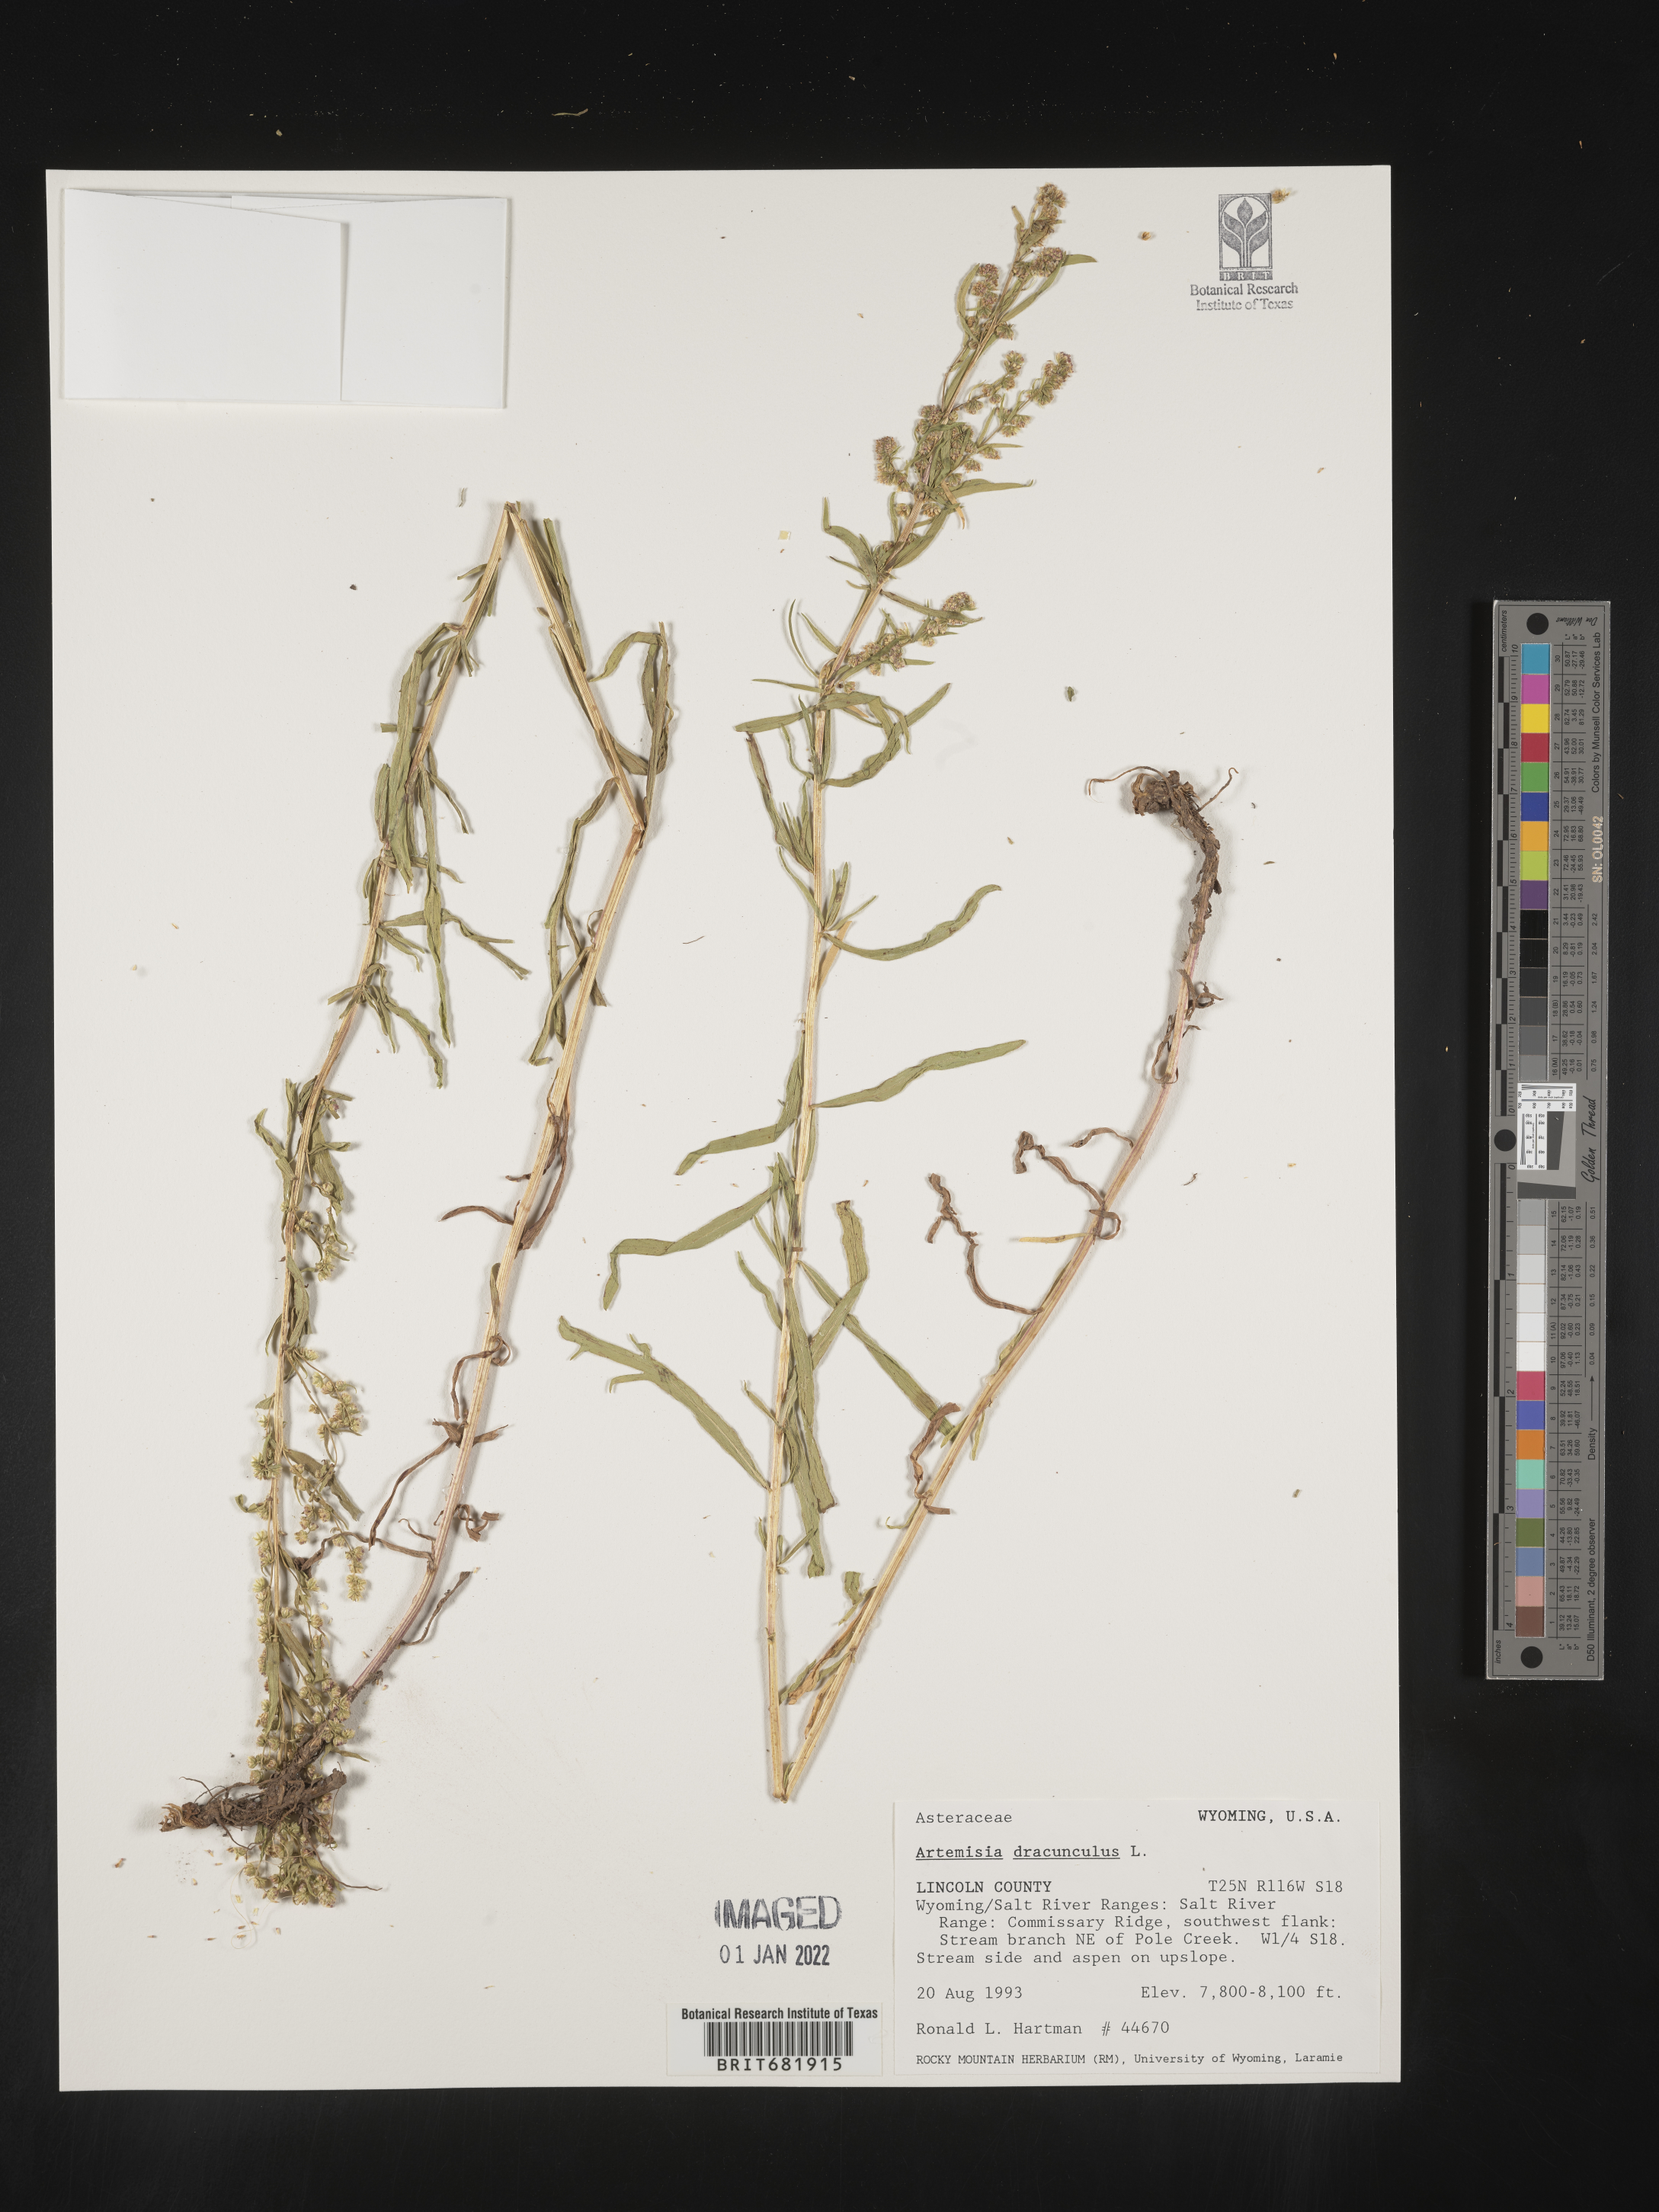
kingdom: Plantae
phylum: Tracheophyta
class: Magnoliopsida
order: Asterales
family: Asteraceae
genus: Artemisia
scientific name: Artemisia dracunculus
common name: Tarragon
